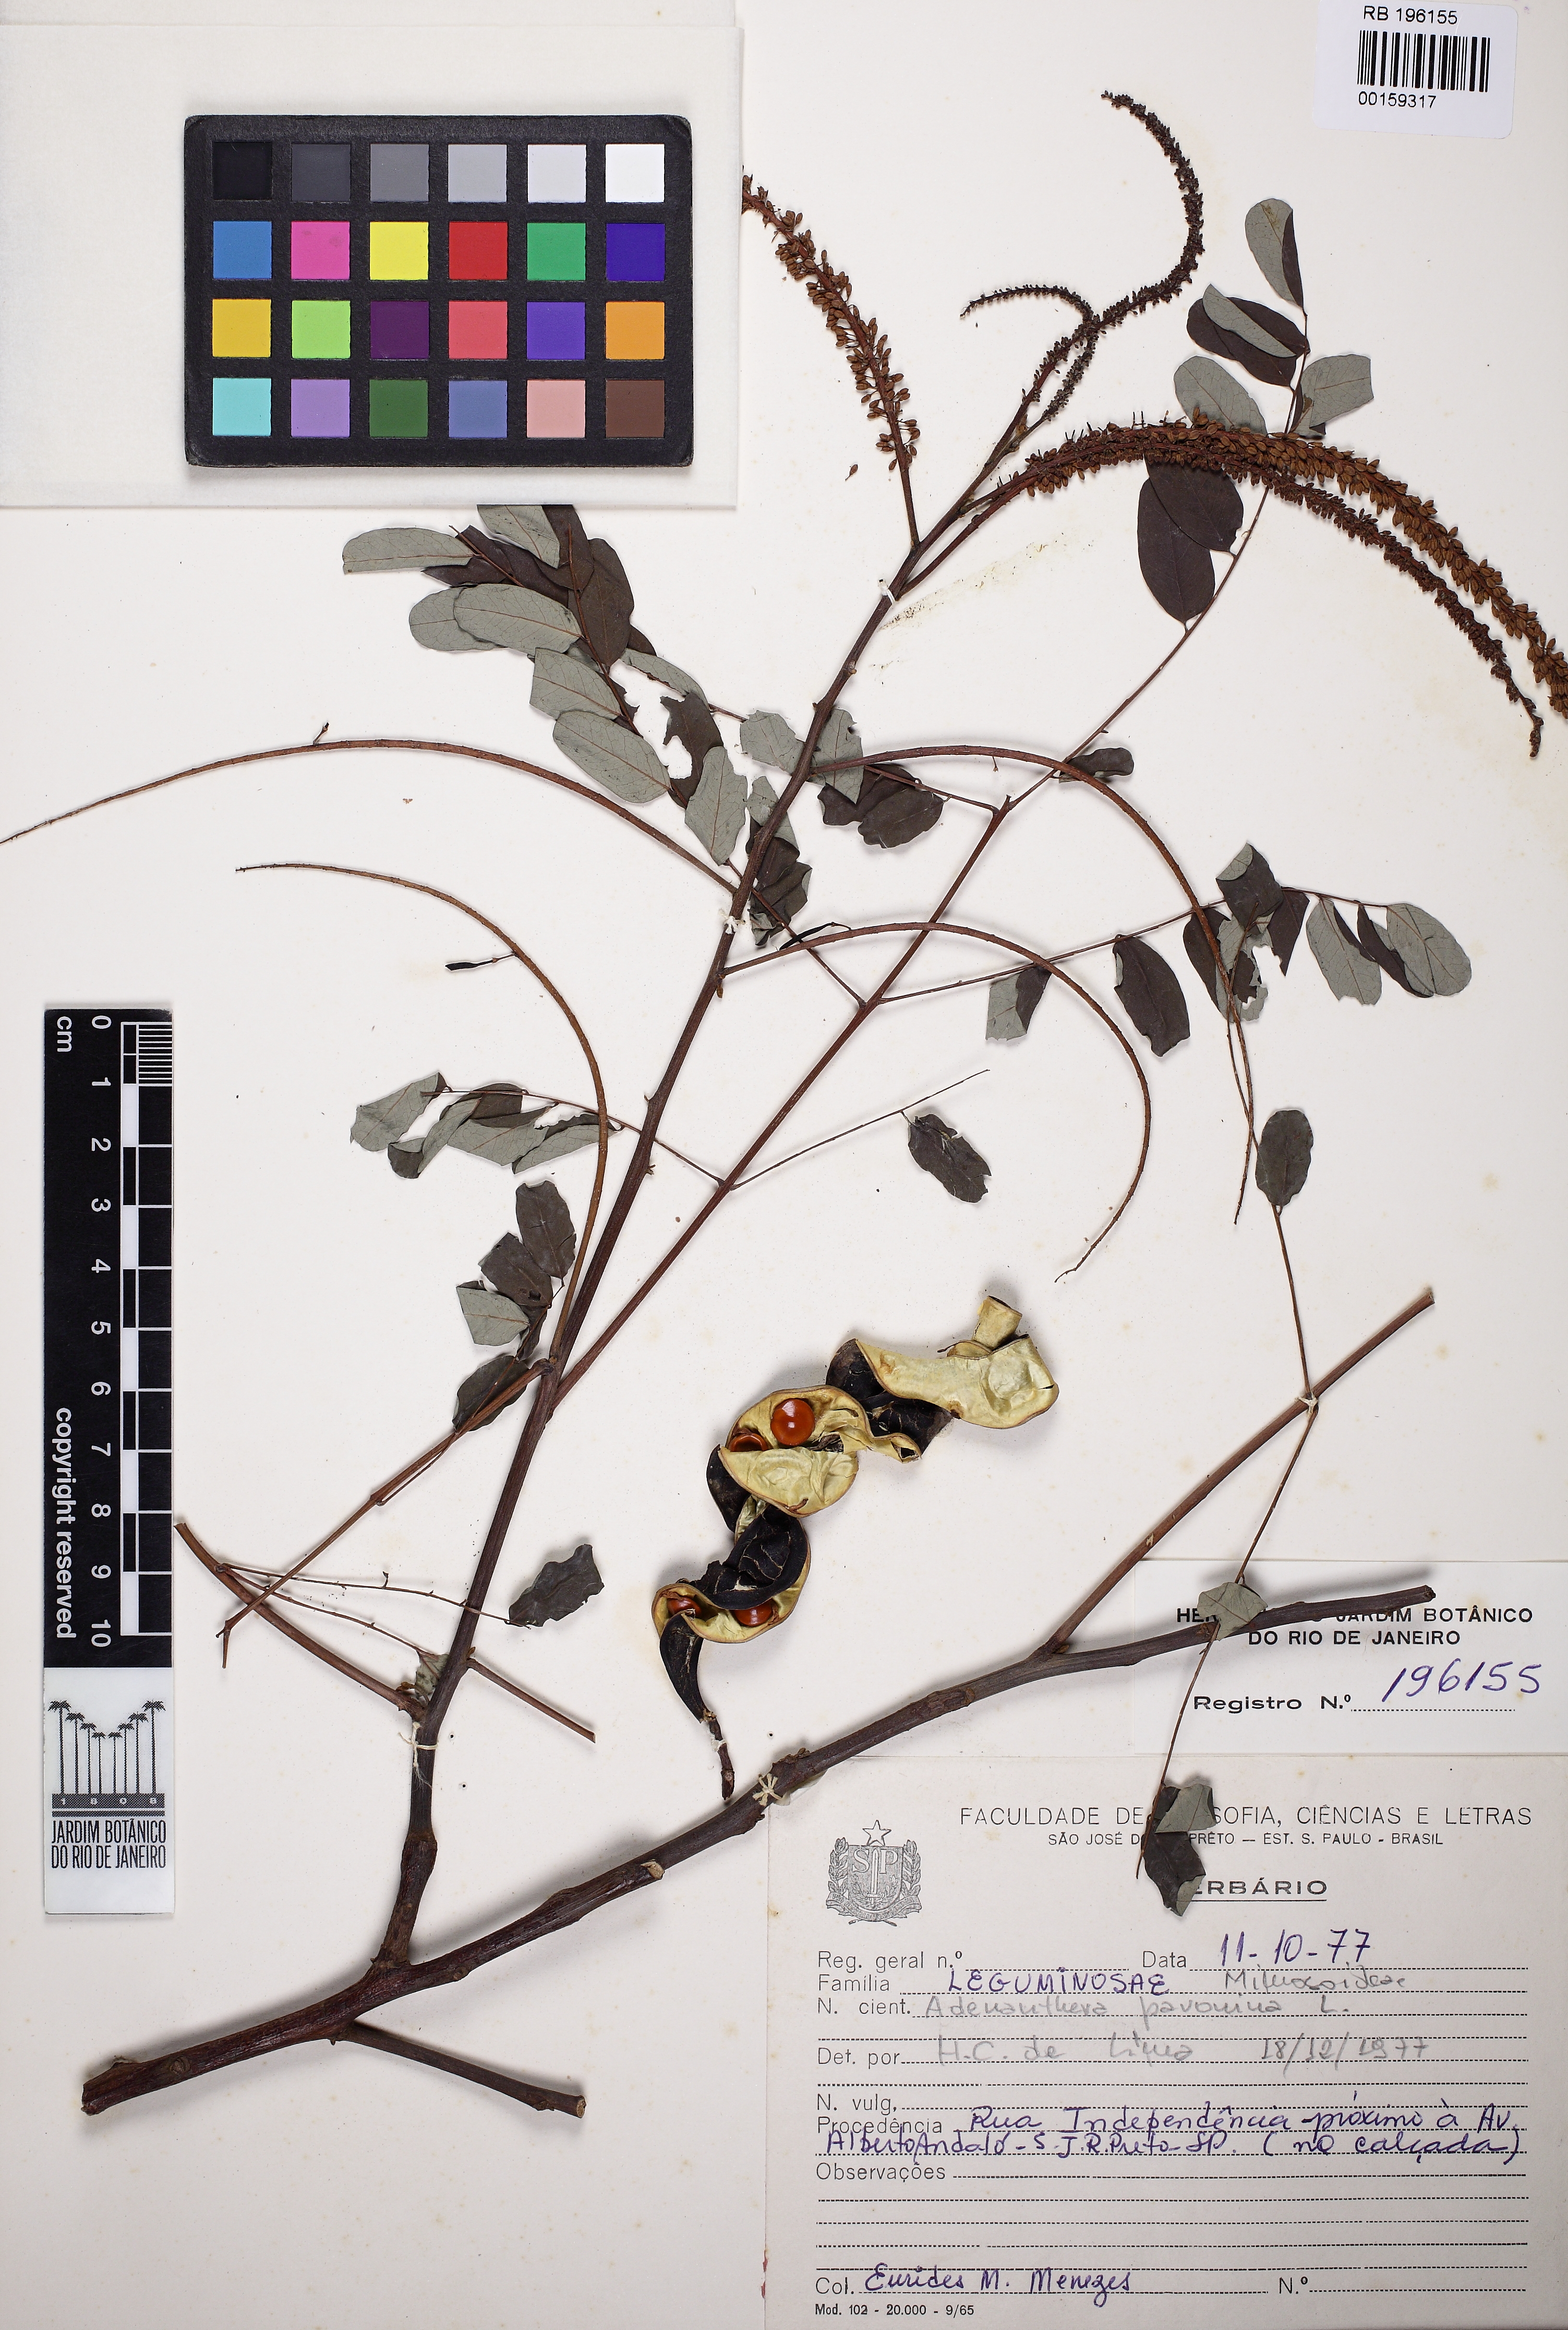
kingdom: Plantae
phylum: Tracheophyta
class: Magnoliopsida
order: Fabales
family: Fabaceae
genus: Adenanthera
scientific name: Adenanthera pavonina
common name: Red beadtree
